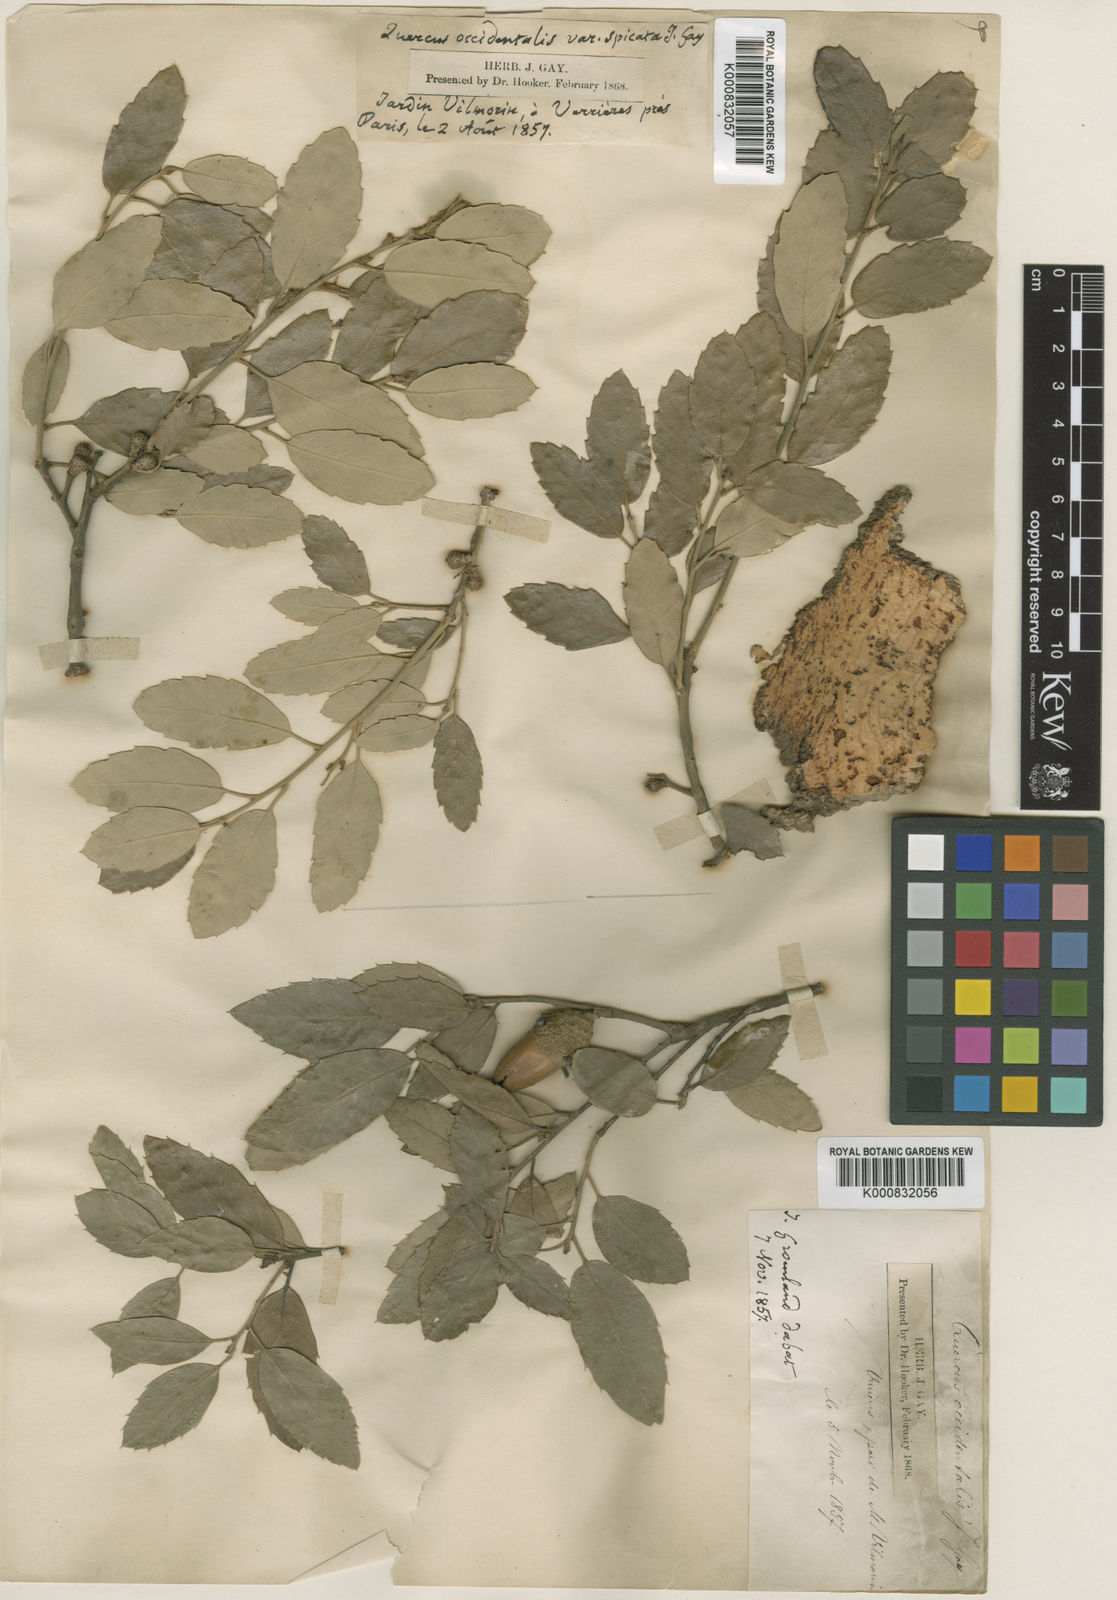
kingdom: Plantae
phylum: Tracheophyta
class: Magnoliopsida
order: Fagales
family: Fagaceae
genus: Quercus
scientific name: Quercus suber
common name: Cork oak
